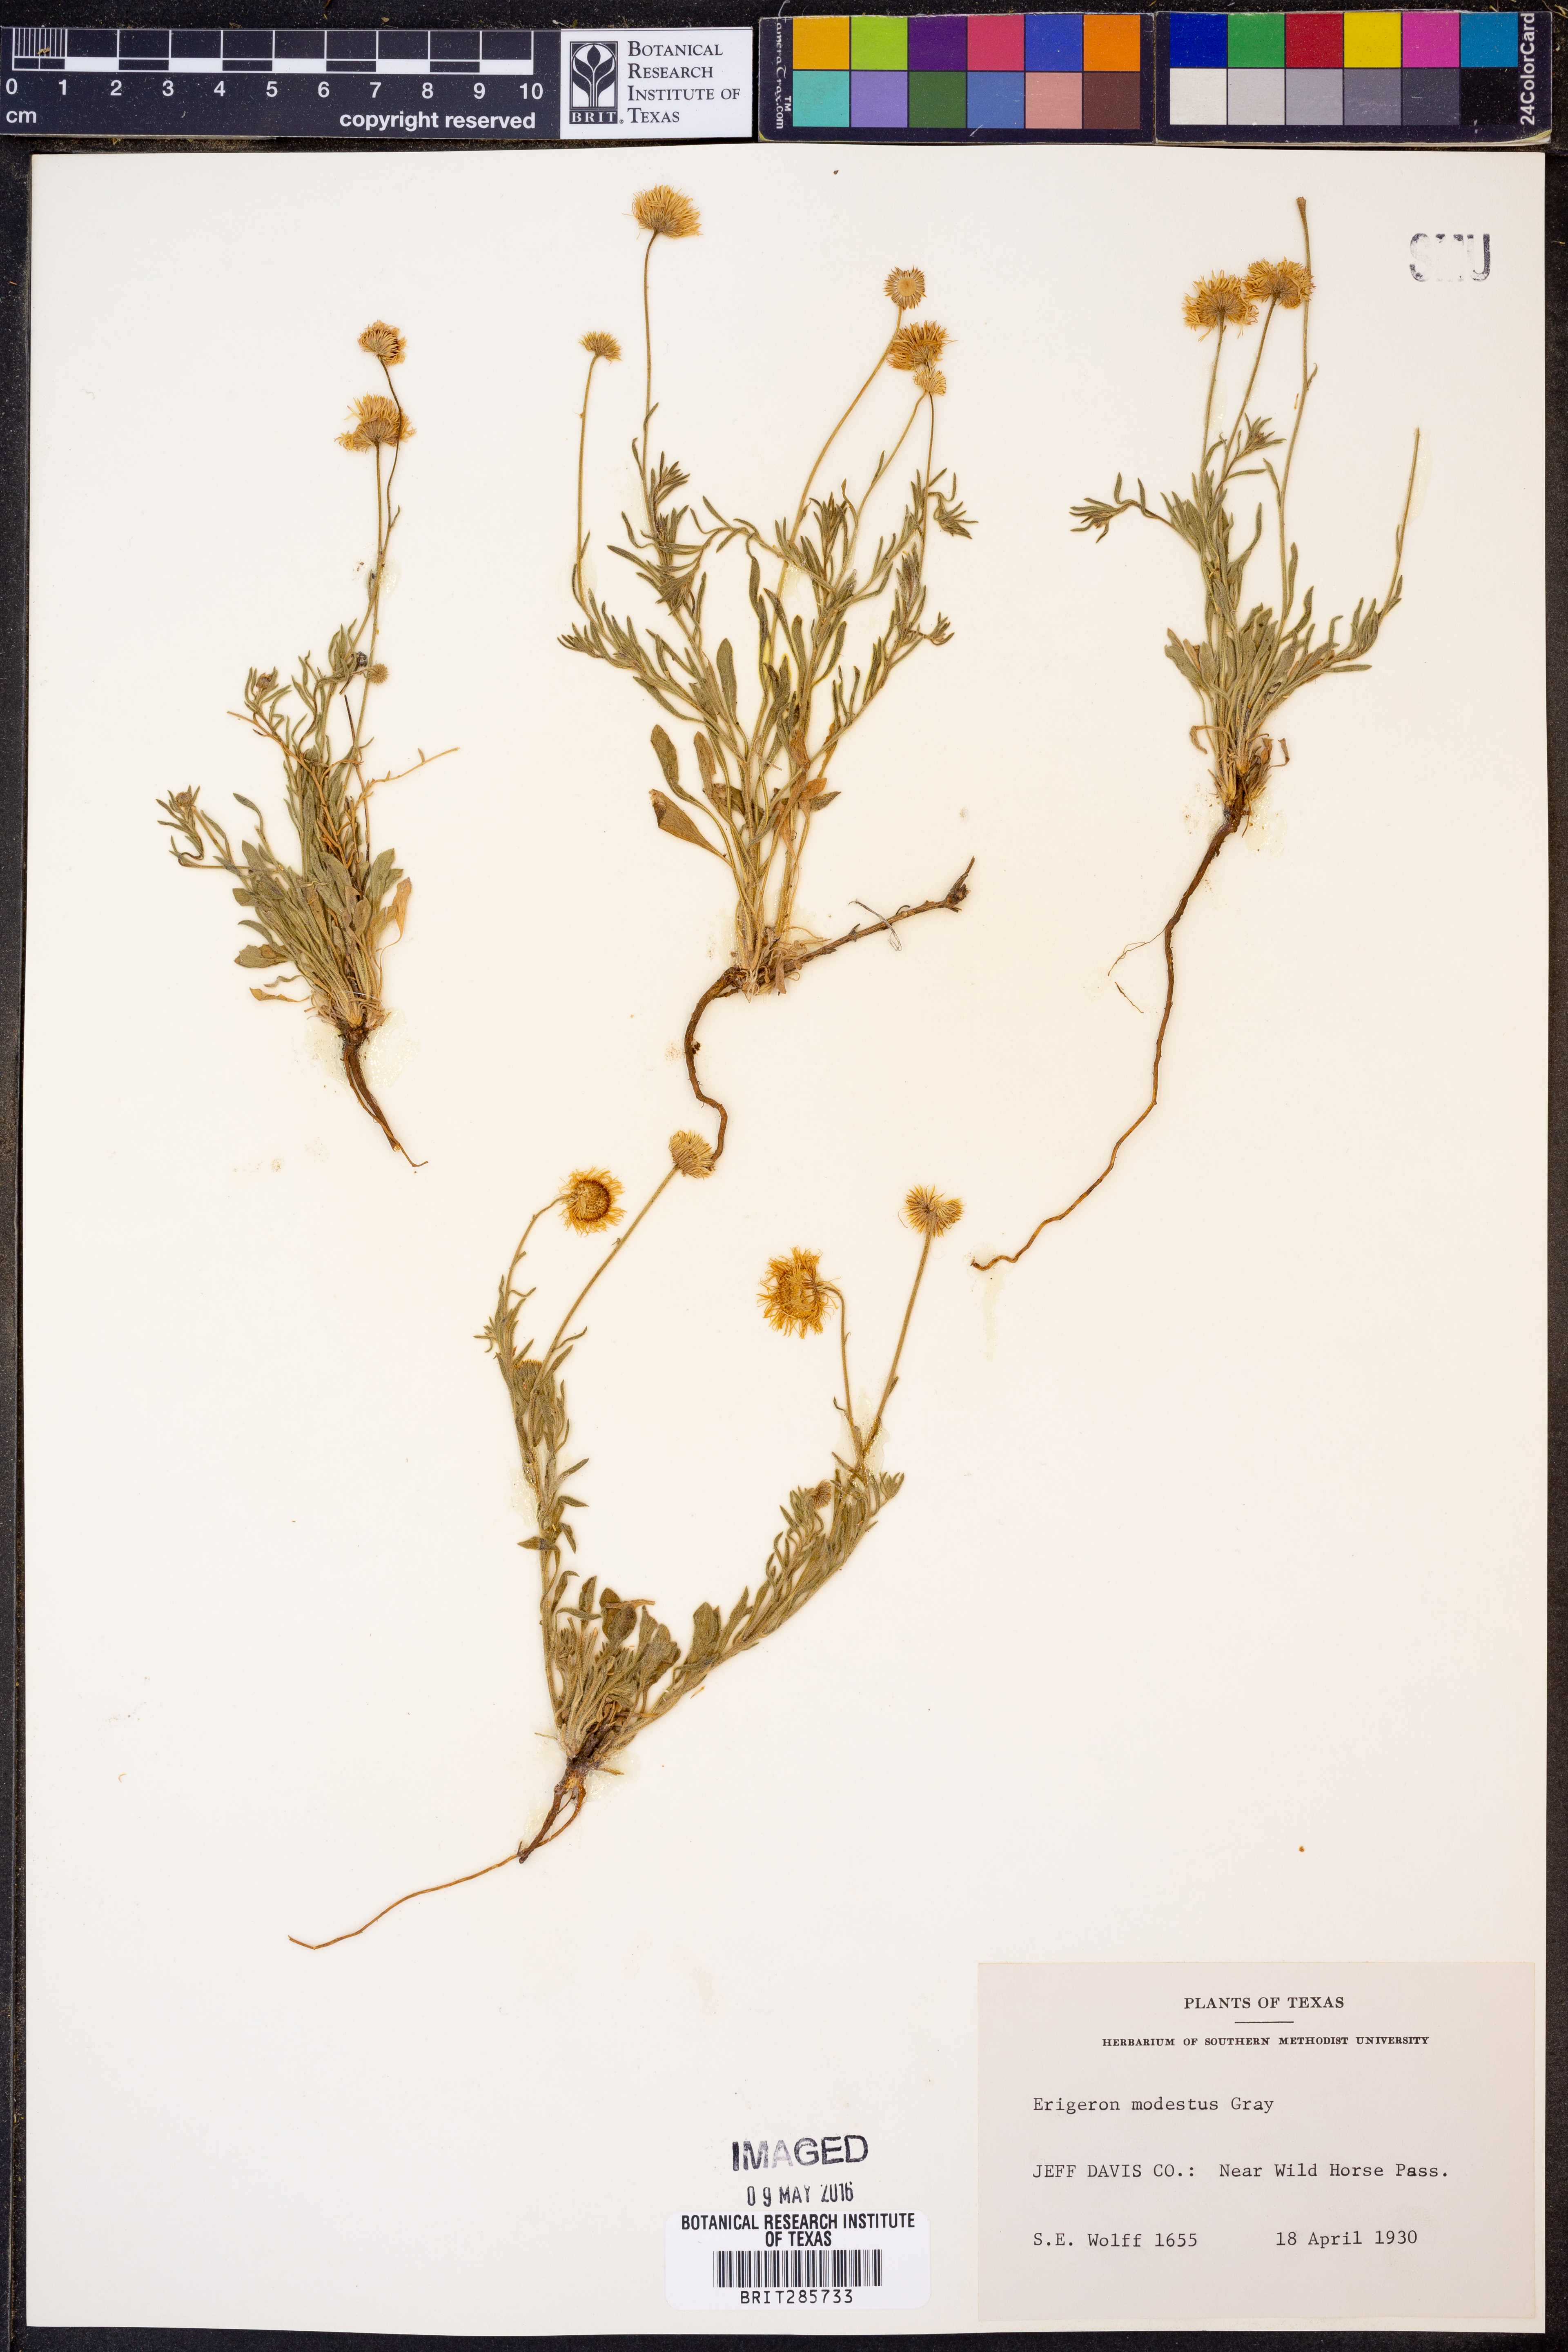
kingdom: Plantae
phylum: Tracheophyta
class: Magnoliopsida
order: Asterales
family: Asteraceae
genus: Erigeron
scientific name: Erigeron modestus
